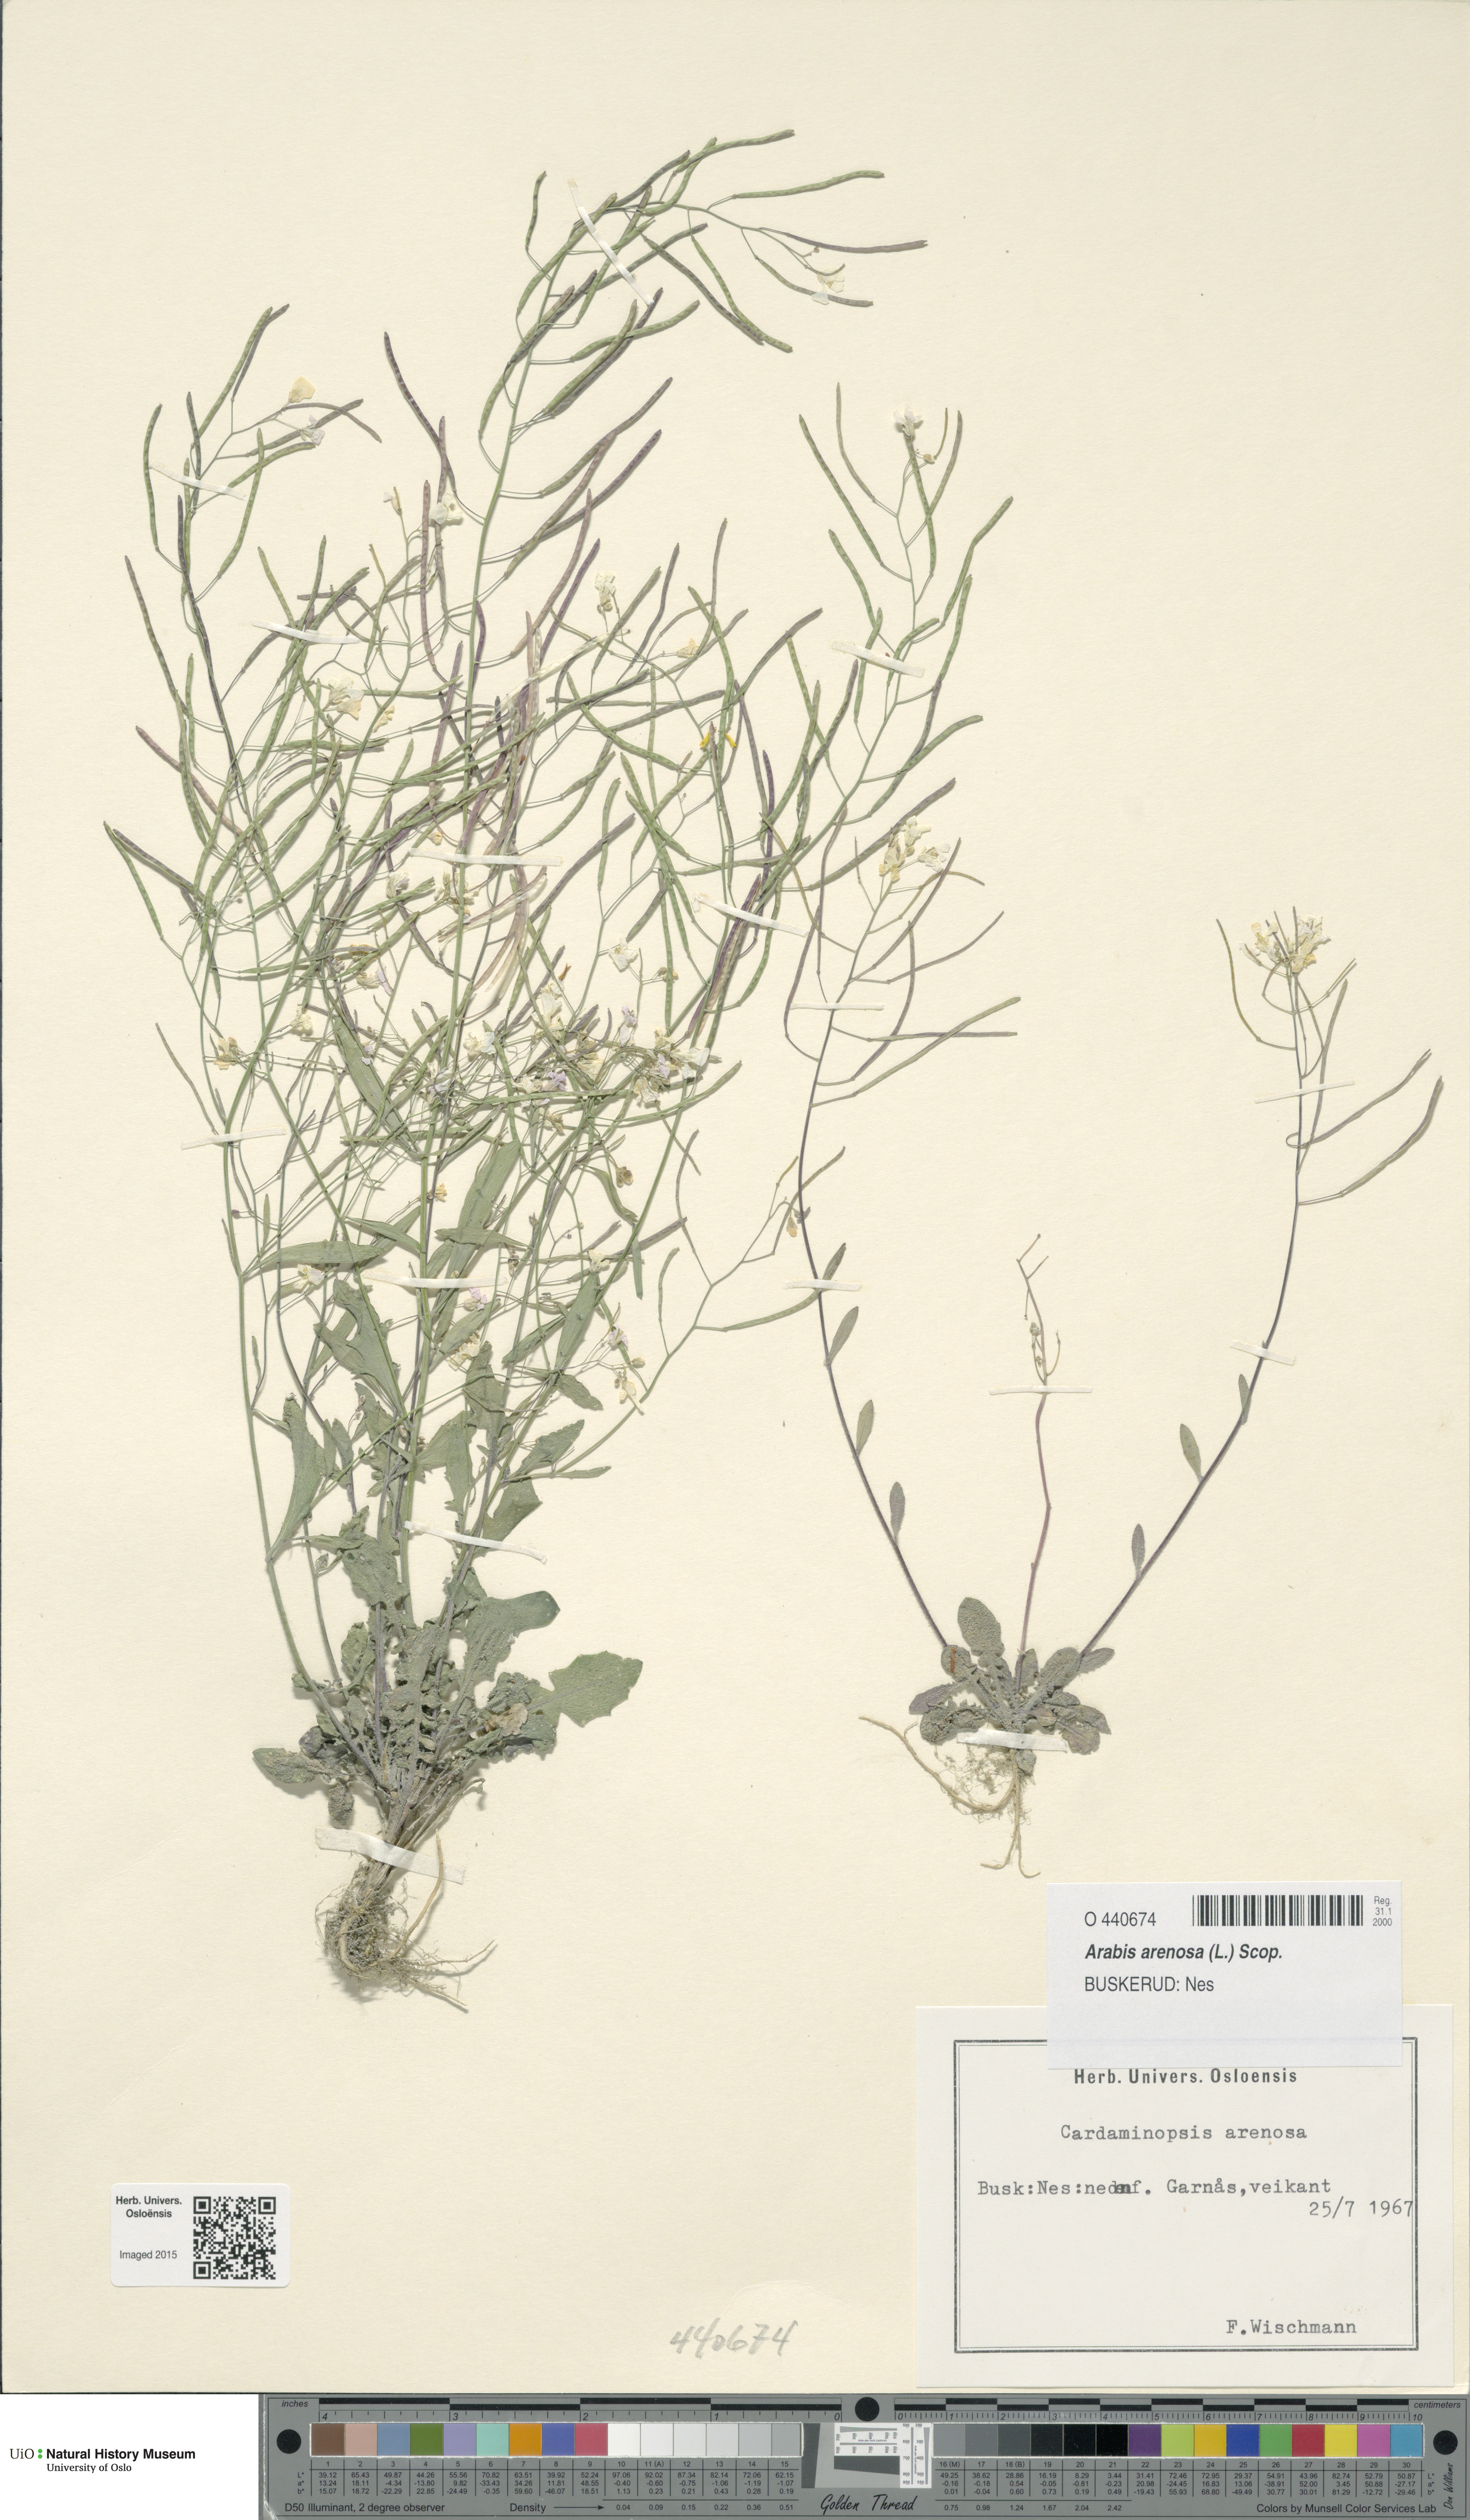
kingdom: Plantae
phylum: Tracheophyta
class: Magnoliopsida
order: Brassicales
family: Brassicaceae
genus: Arabidopsis
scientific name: Arabidopsis arenosa
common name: Sand rock-cress
